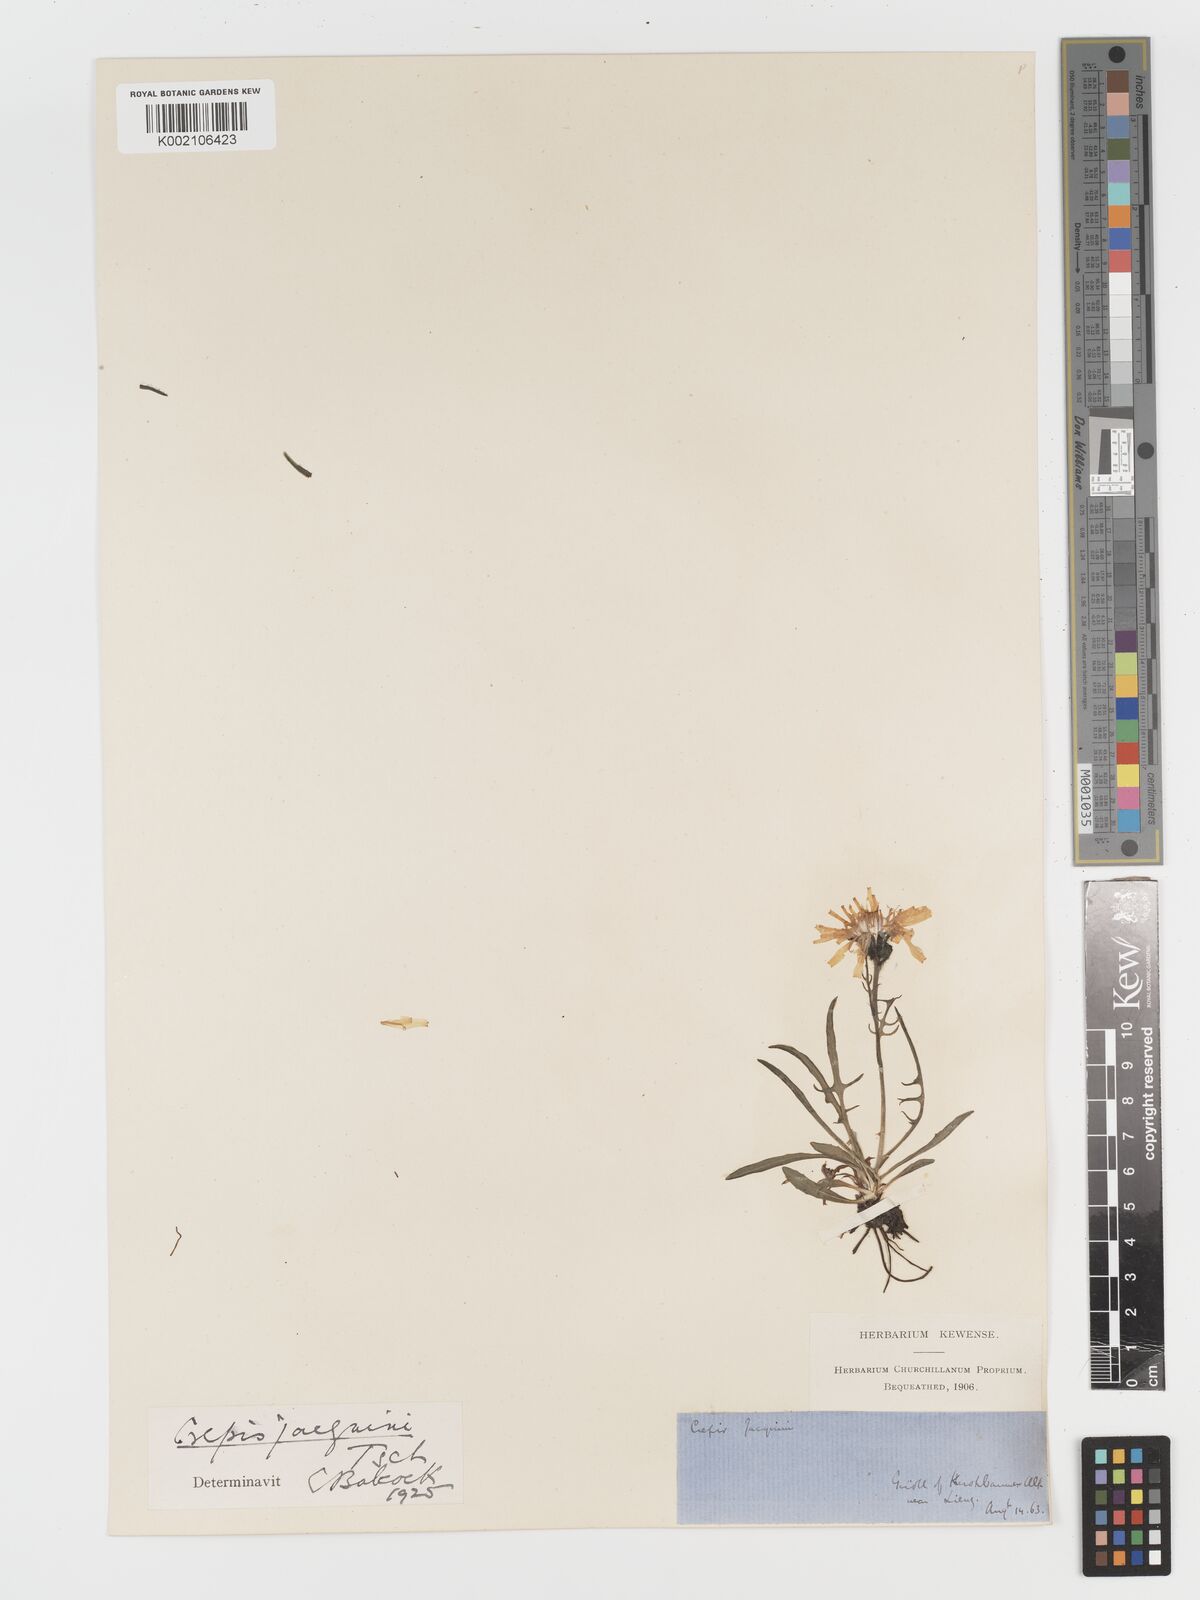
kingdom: Plantae
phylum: Tracheophyta
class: Magnoliopsida
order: Asterales
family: Asteraceae
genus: Crepis
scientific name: Crepis jacquinii
